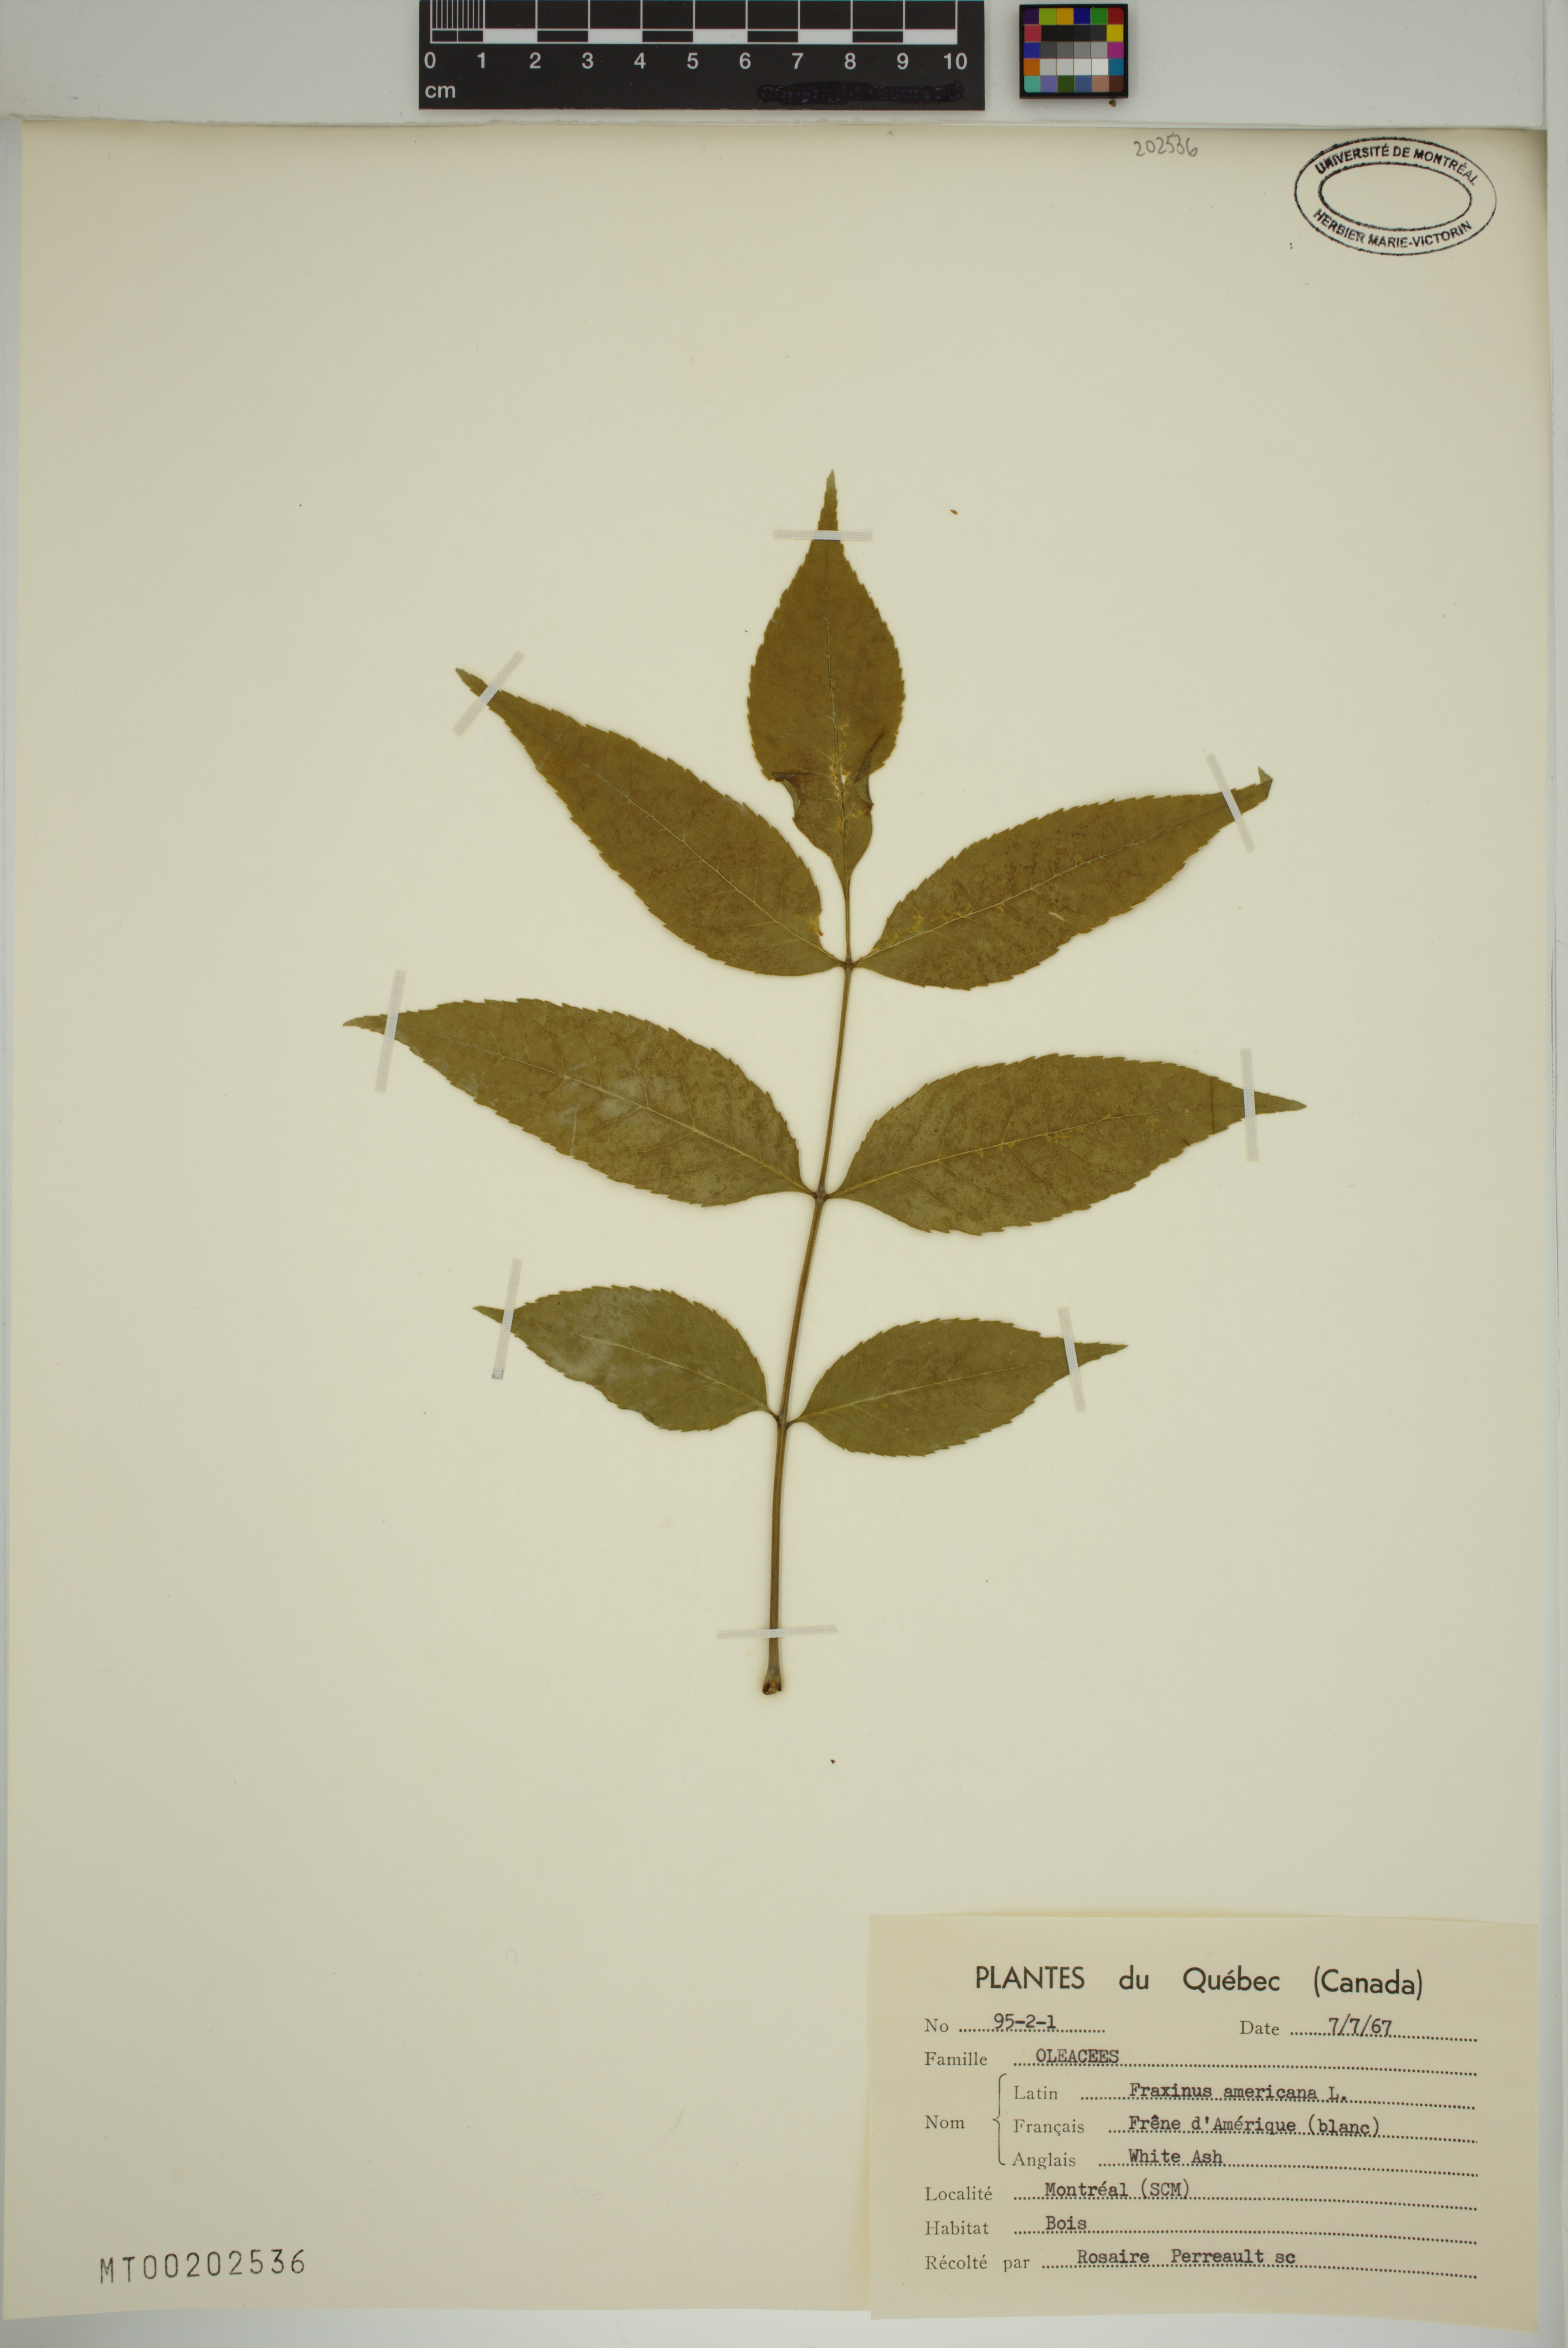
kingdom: Plantae
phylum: Tracheophyta
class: Magnoliopsida
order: Lamiales
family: Oleaceae
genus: Fraxinus
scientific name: Fraxinus pennsylvanica
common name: Green ash
